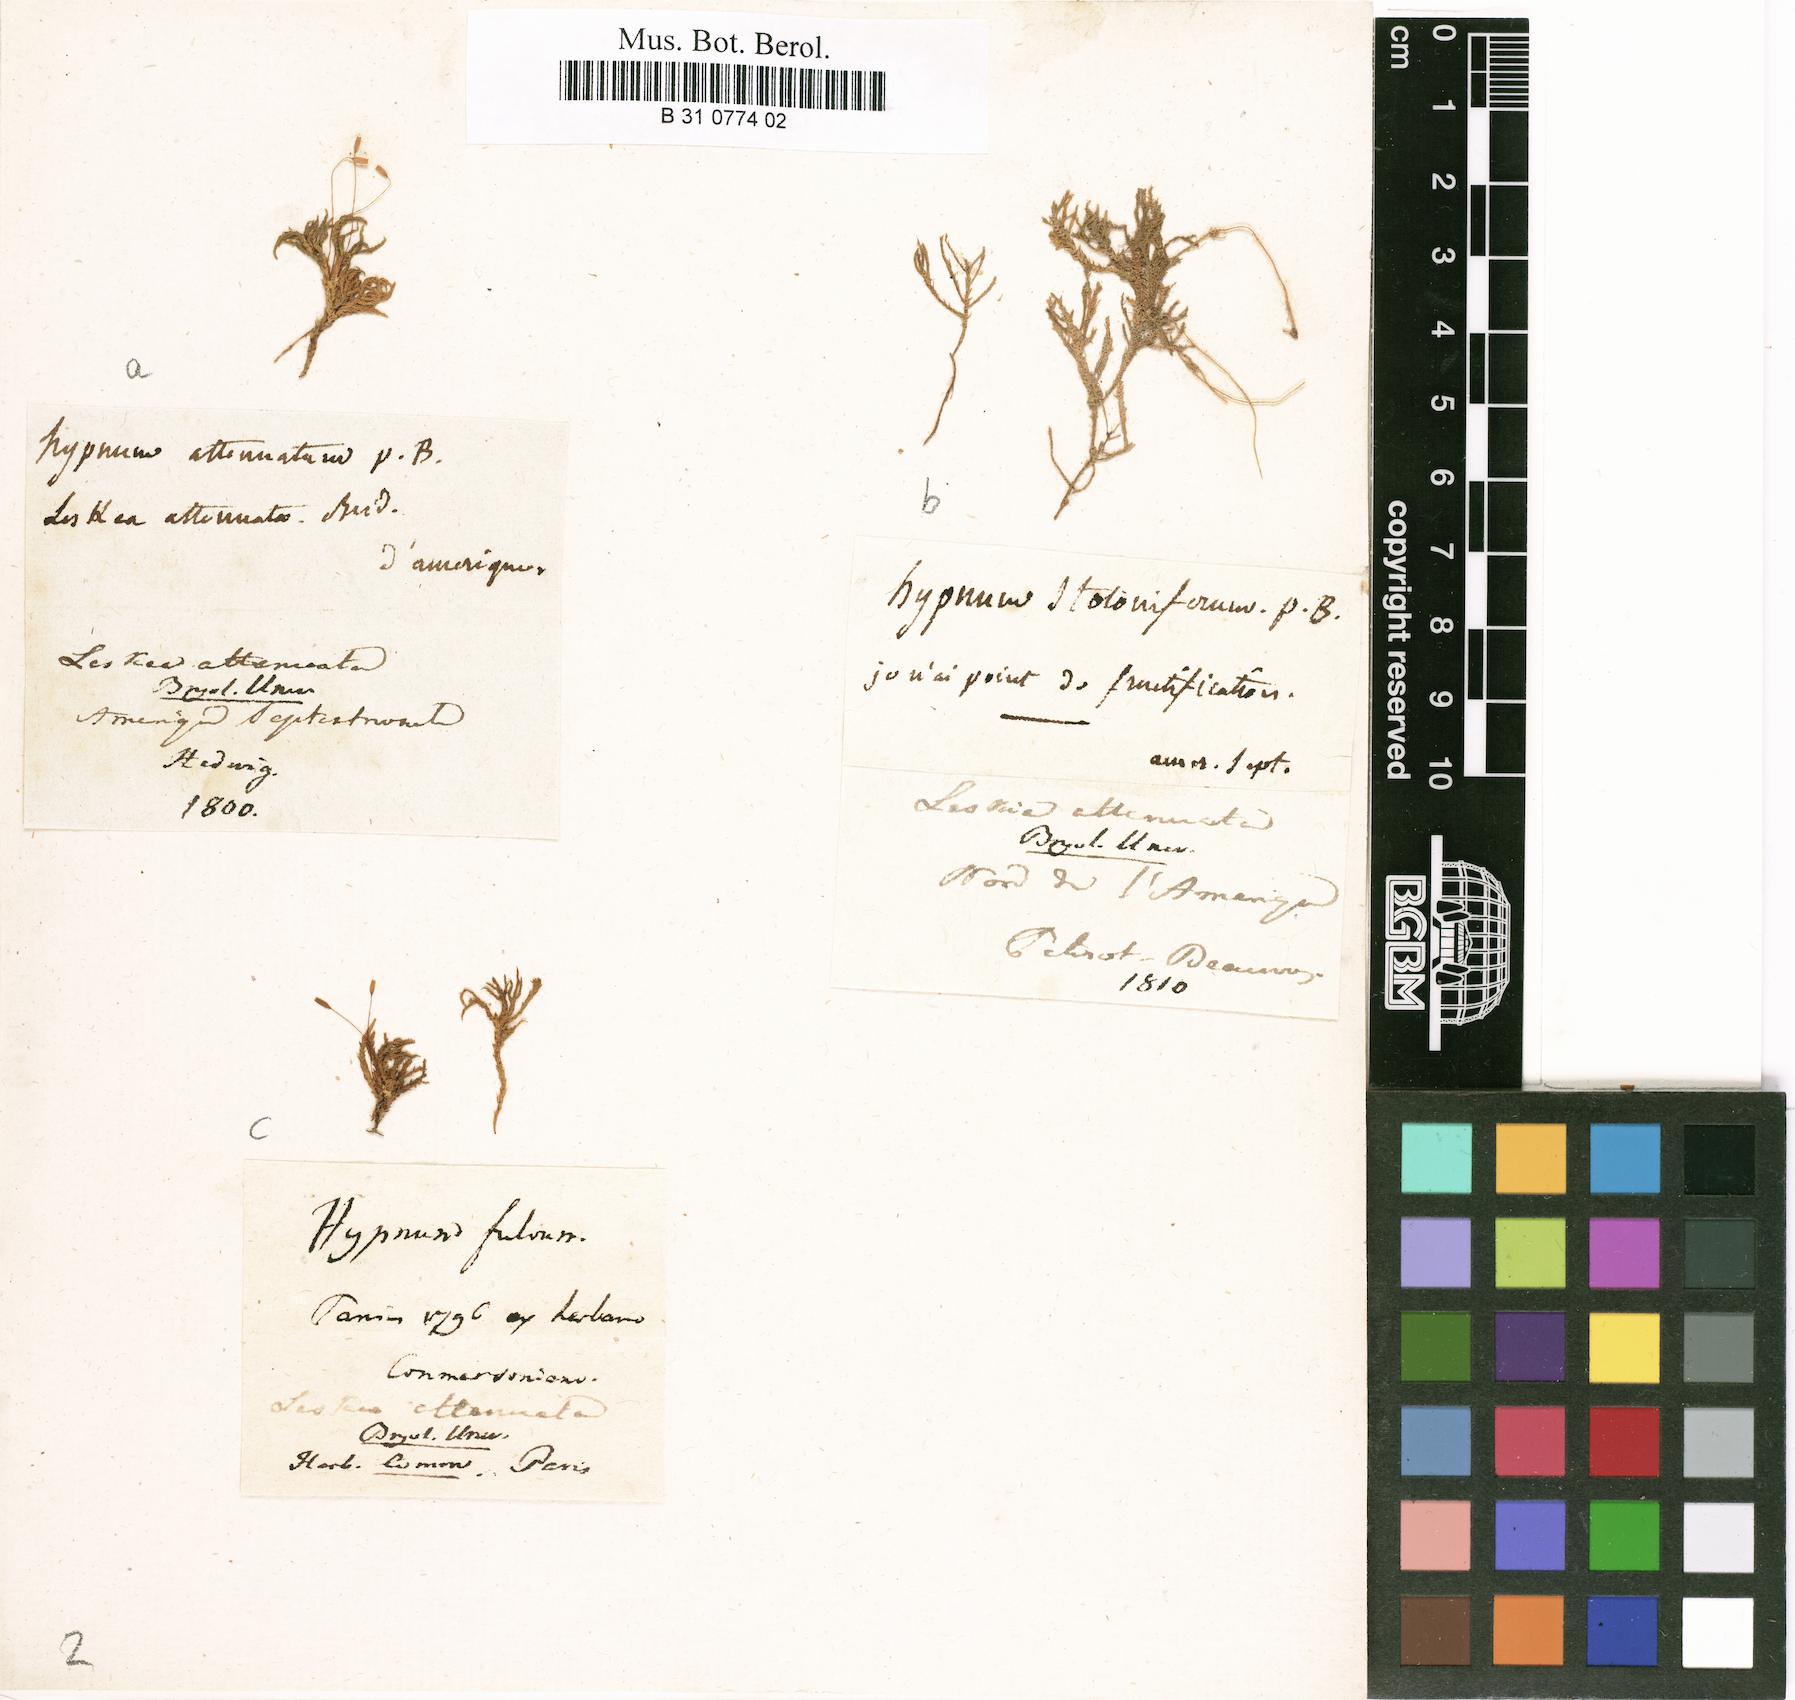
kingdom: Plantae
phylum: Bryophyta
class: Bryopsida
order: Hypnales
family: Neckeraceae
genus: Pseudanomodon
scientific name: Pseudanomodon attenuatus
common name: Tree-skirt moss
